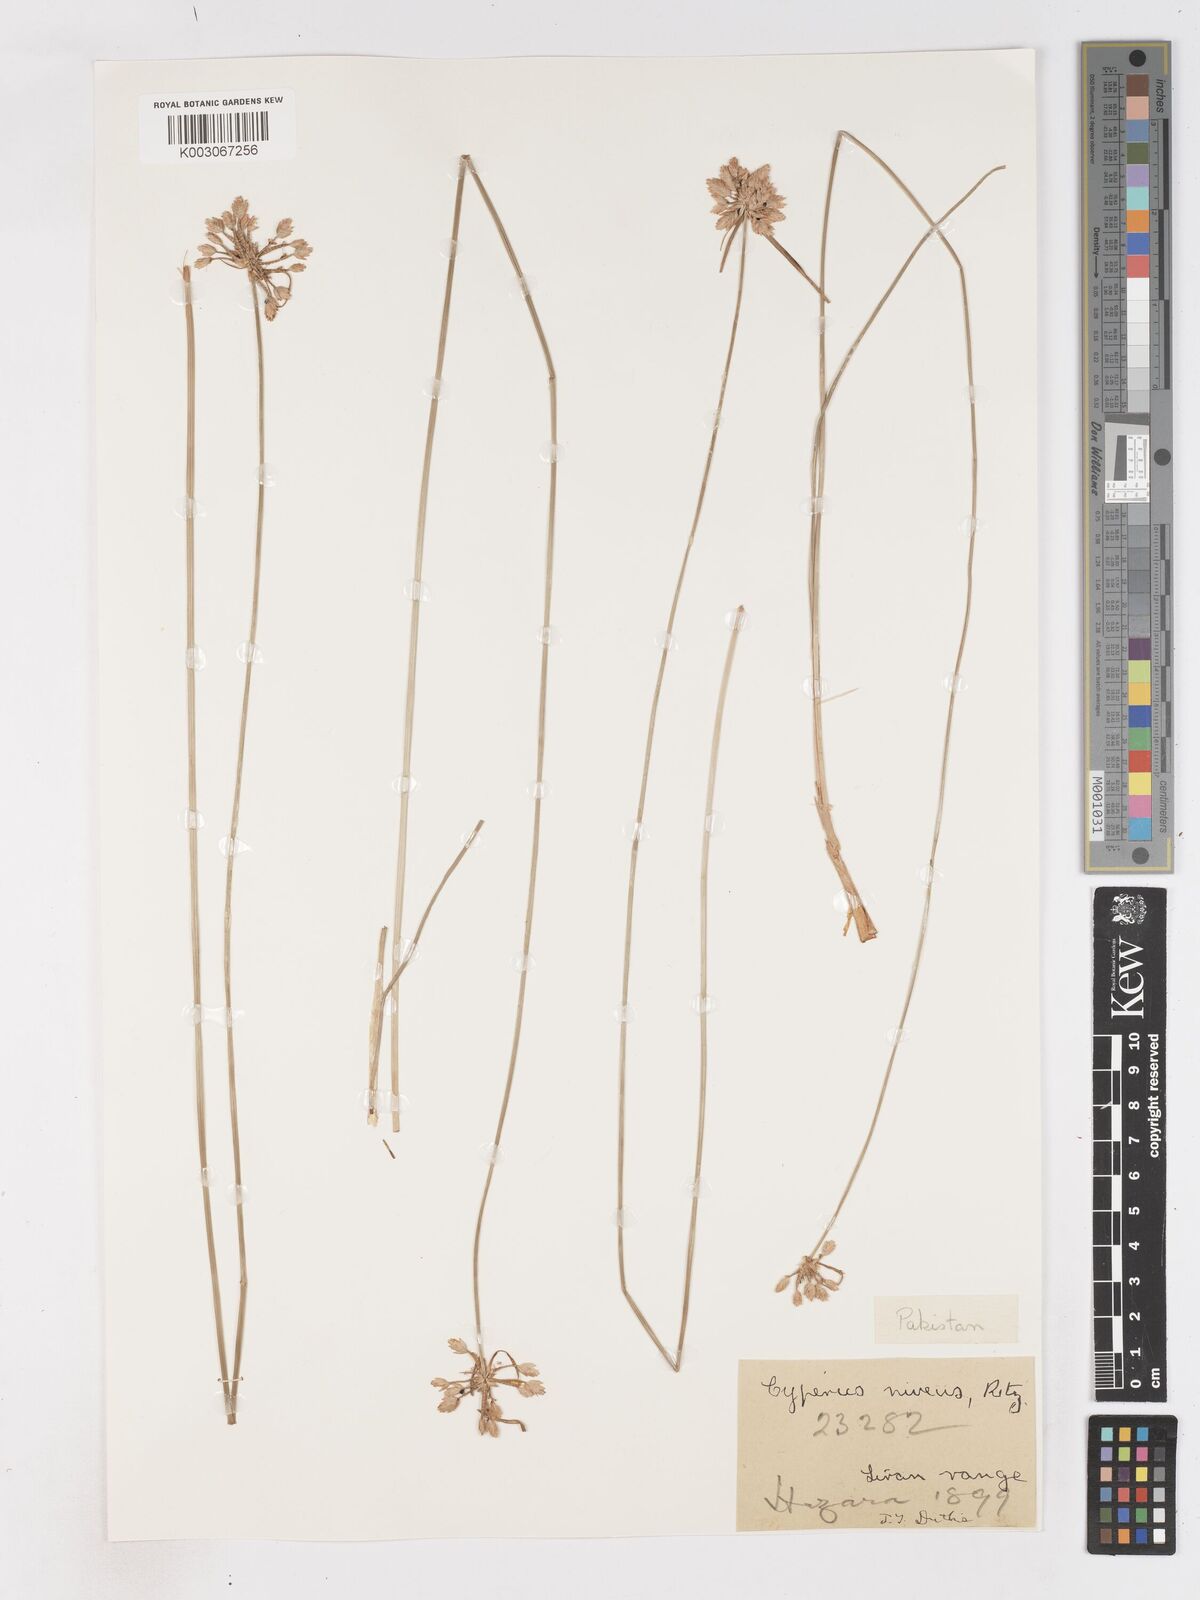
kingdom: Plantae
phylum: Tracheophyta
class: Liliopsida
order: Poales
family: Cyperaceae
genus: Cyperus
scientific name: Cyperus niveus
